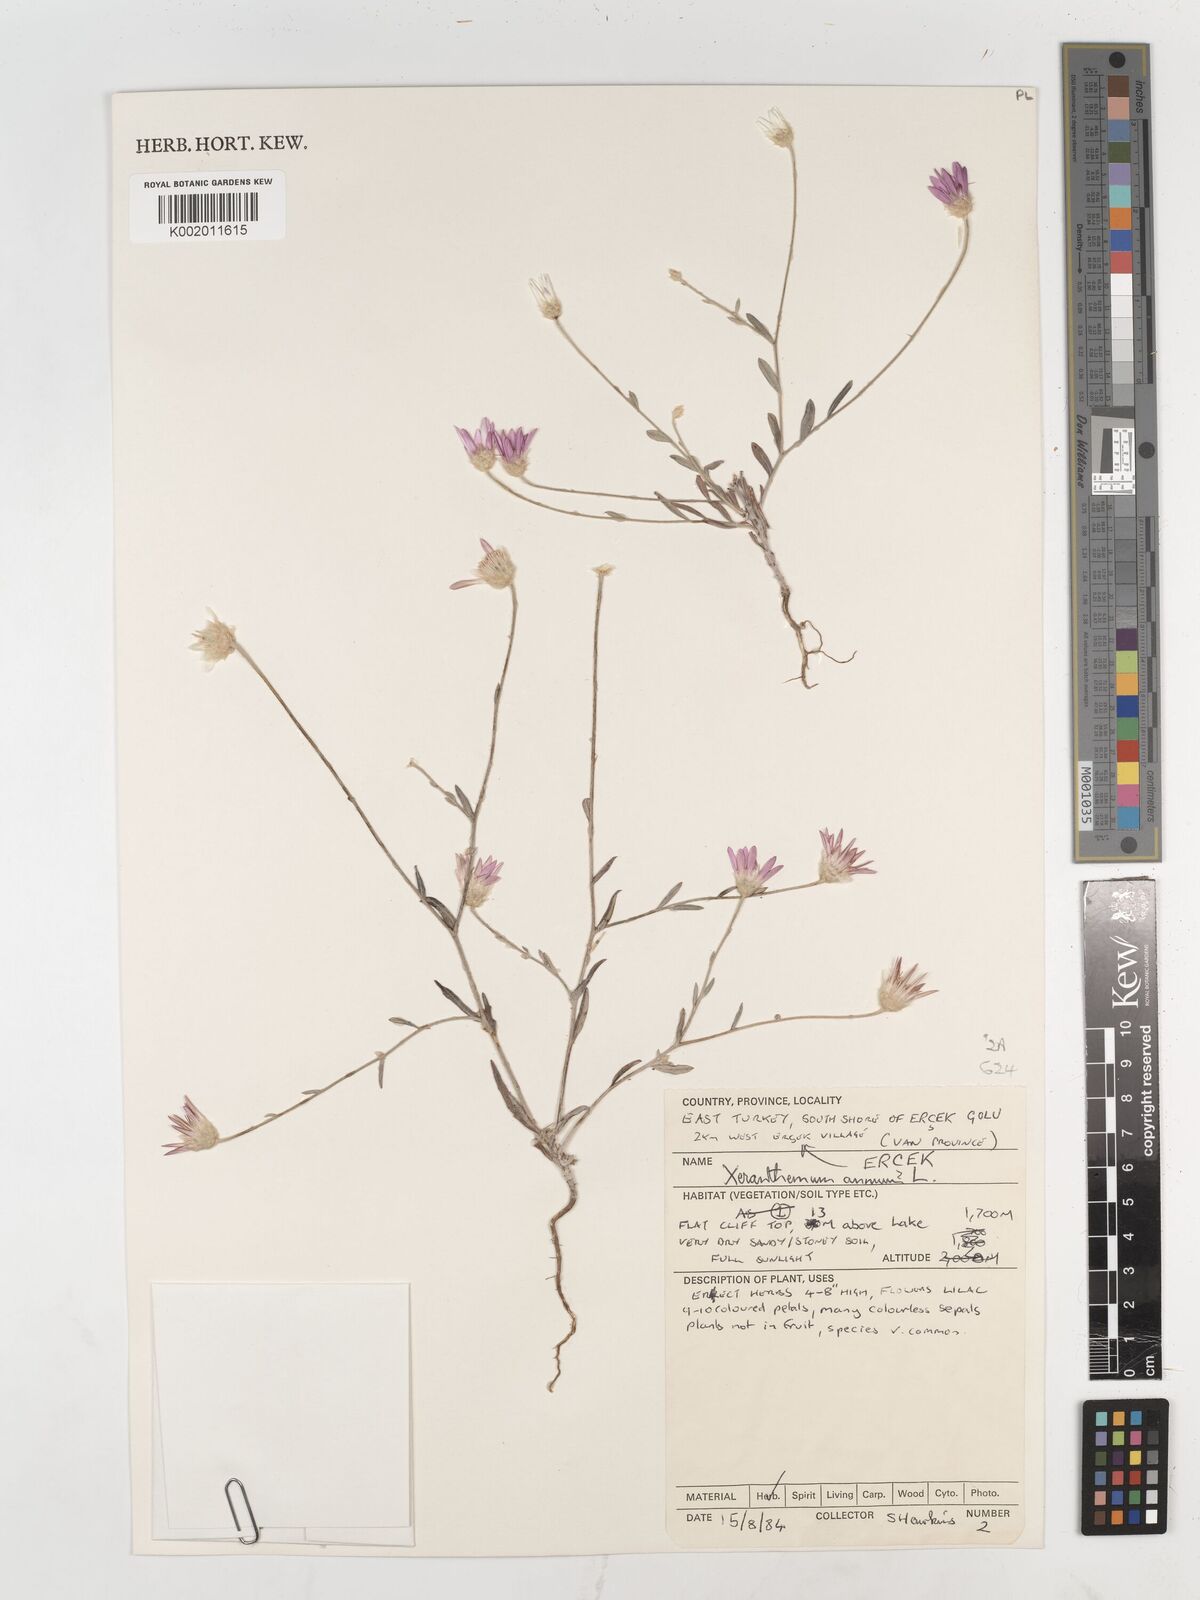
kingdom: Plantae
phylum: Tracheophyta
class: Magnoliopsida
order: Asterales
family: Asteraceae
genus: Xeranthemum
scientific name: Xeranthemum annuum
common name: Immortelle
